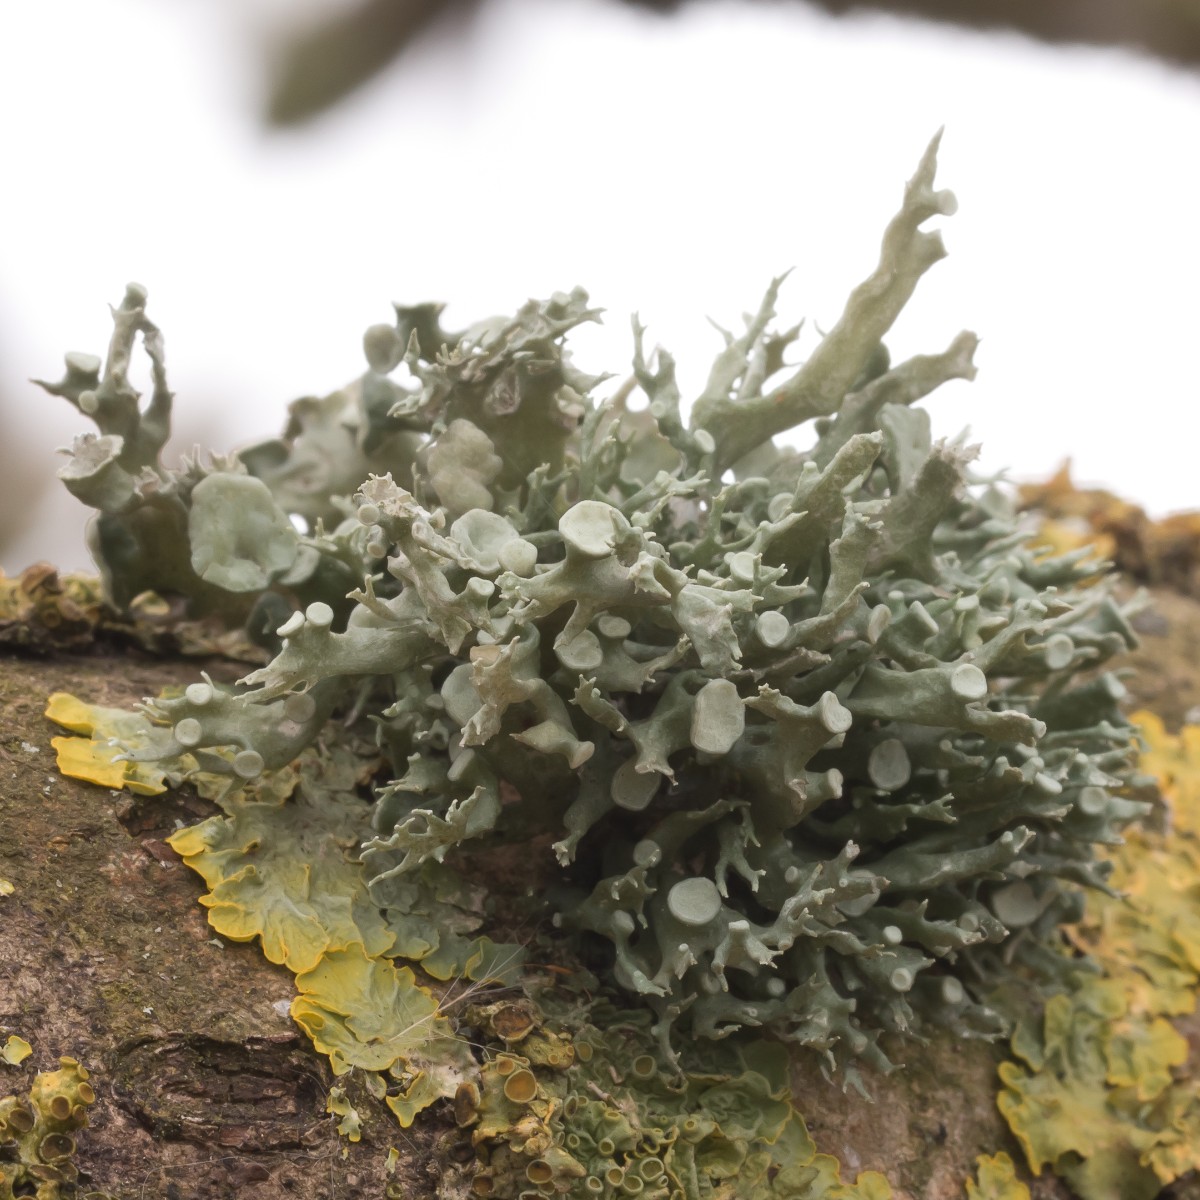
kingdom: Fungi
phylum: Ascomycota
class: Lecanoromycetes
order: Lecanorales
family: Ramalinaceae
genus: Ramalina
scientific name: Ramalina fastigiata
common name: tue-grenlav
